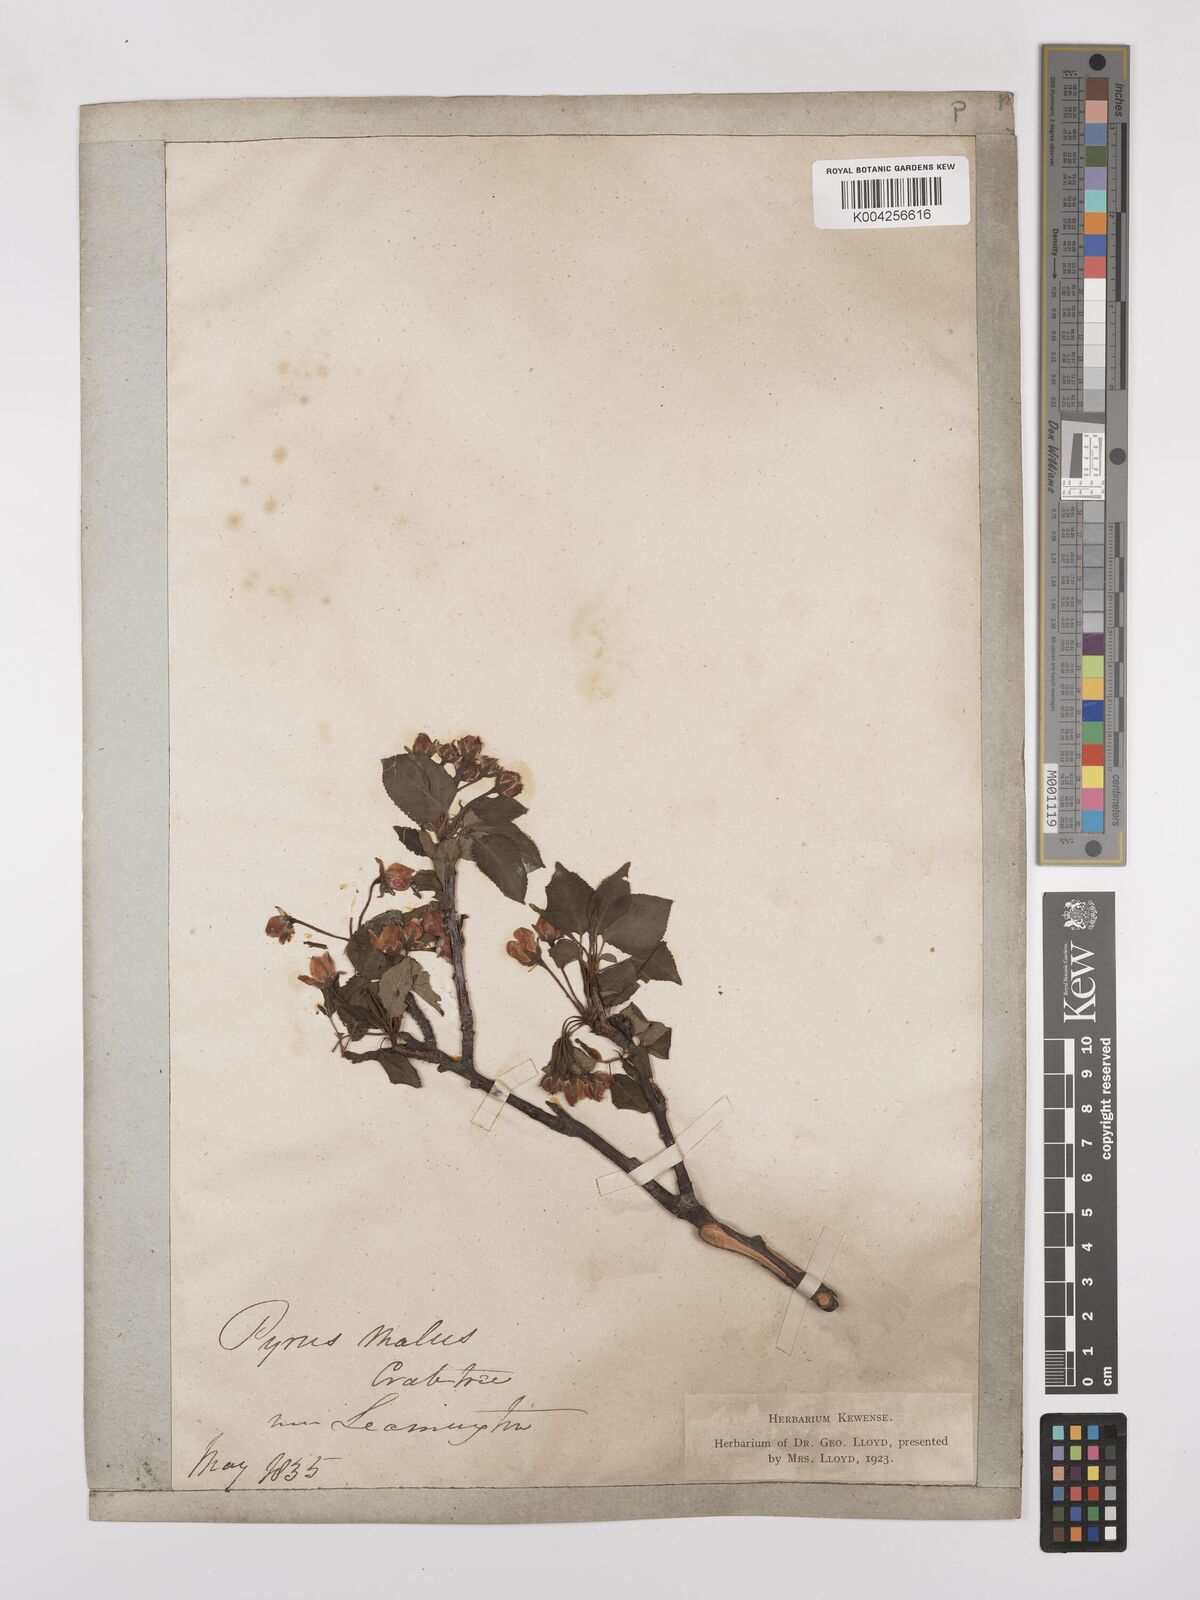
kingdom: Plantae
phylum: Tracheophyta
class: Magnoliopsida
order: Rosales
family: Rosaceae
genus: Malus
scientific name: Malus sylvestris
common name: Crab apple
